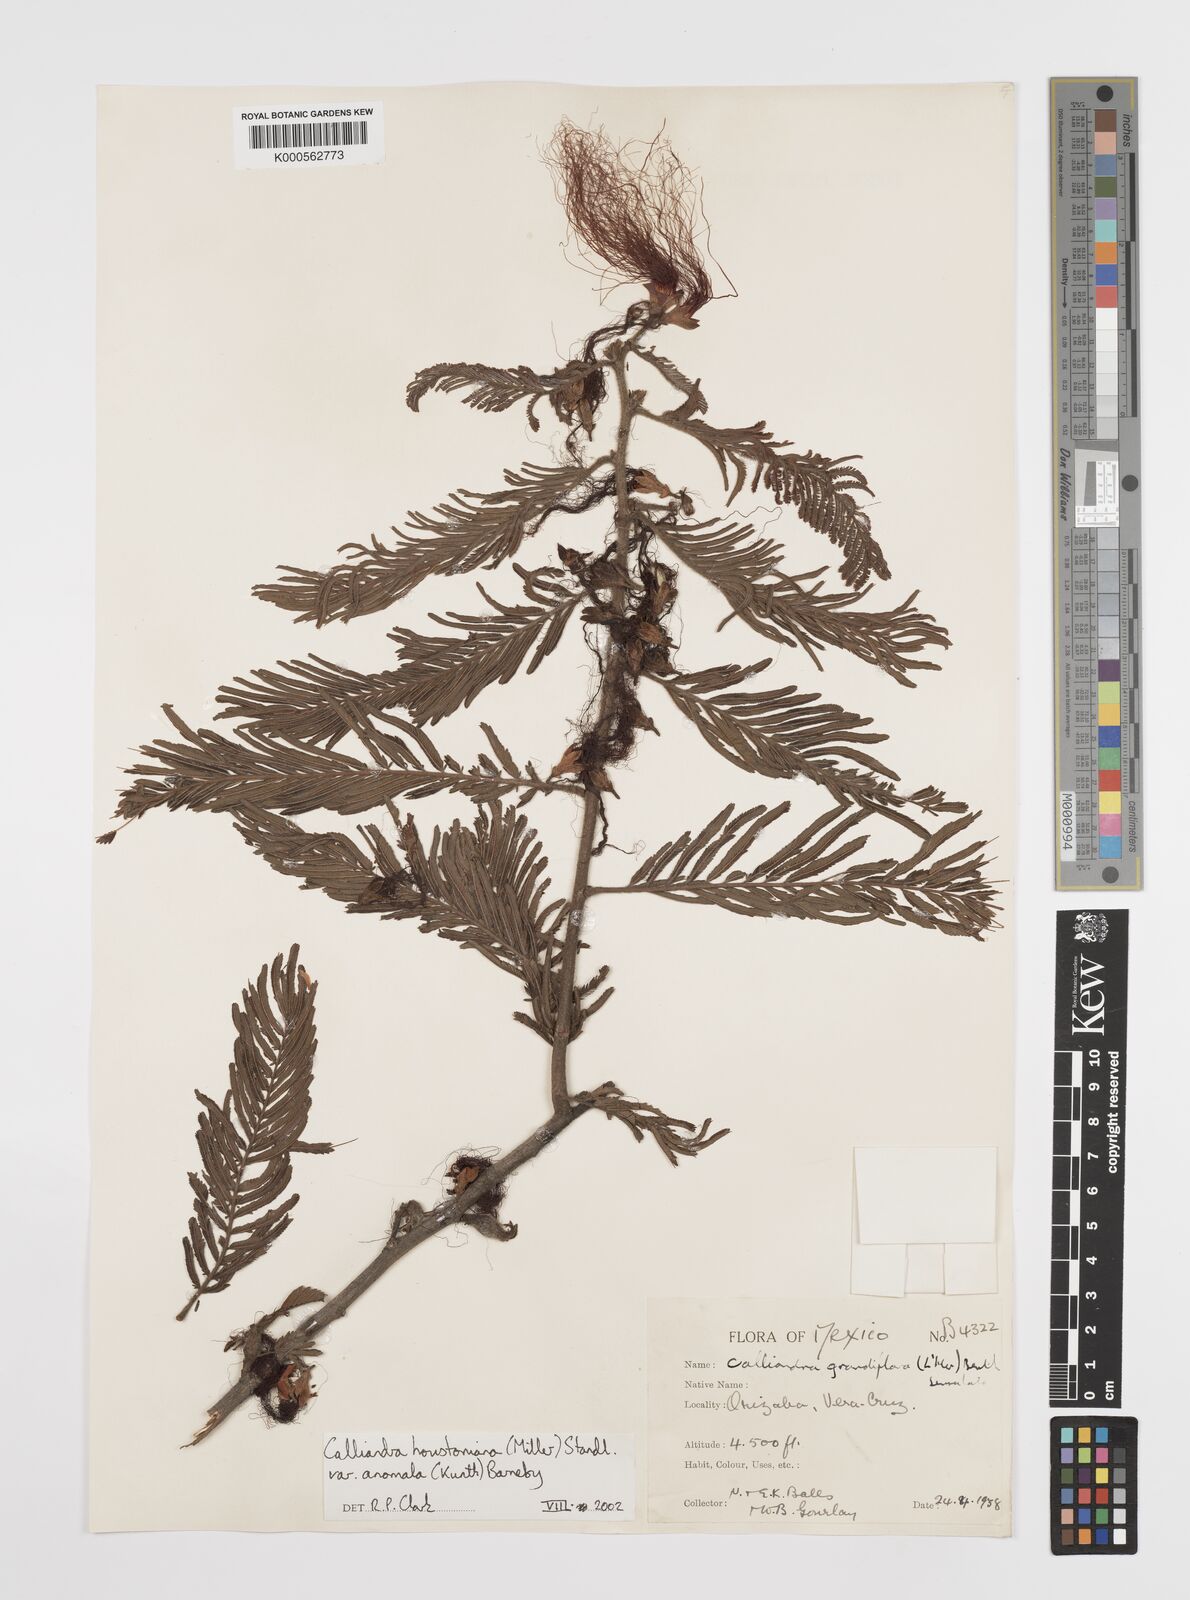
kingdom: Plantae
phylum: Tracheophyta
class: Magnoliopsida
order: Fabales
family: Fabaceae
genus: Calliandra
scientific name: Calliandra houstoniana
